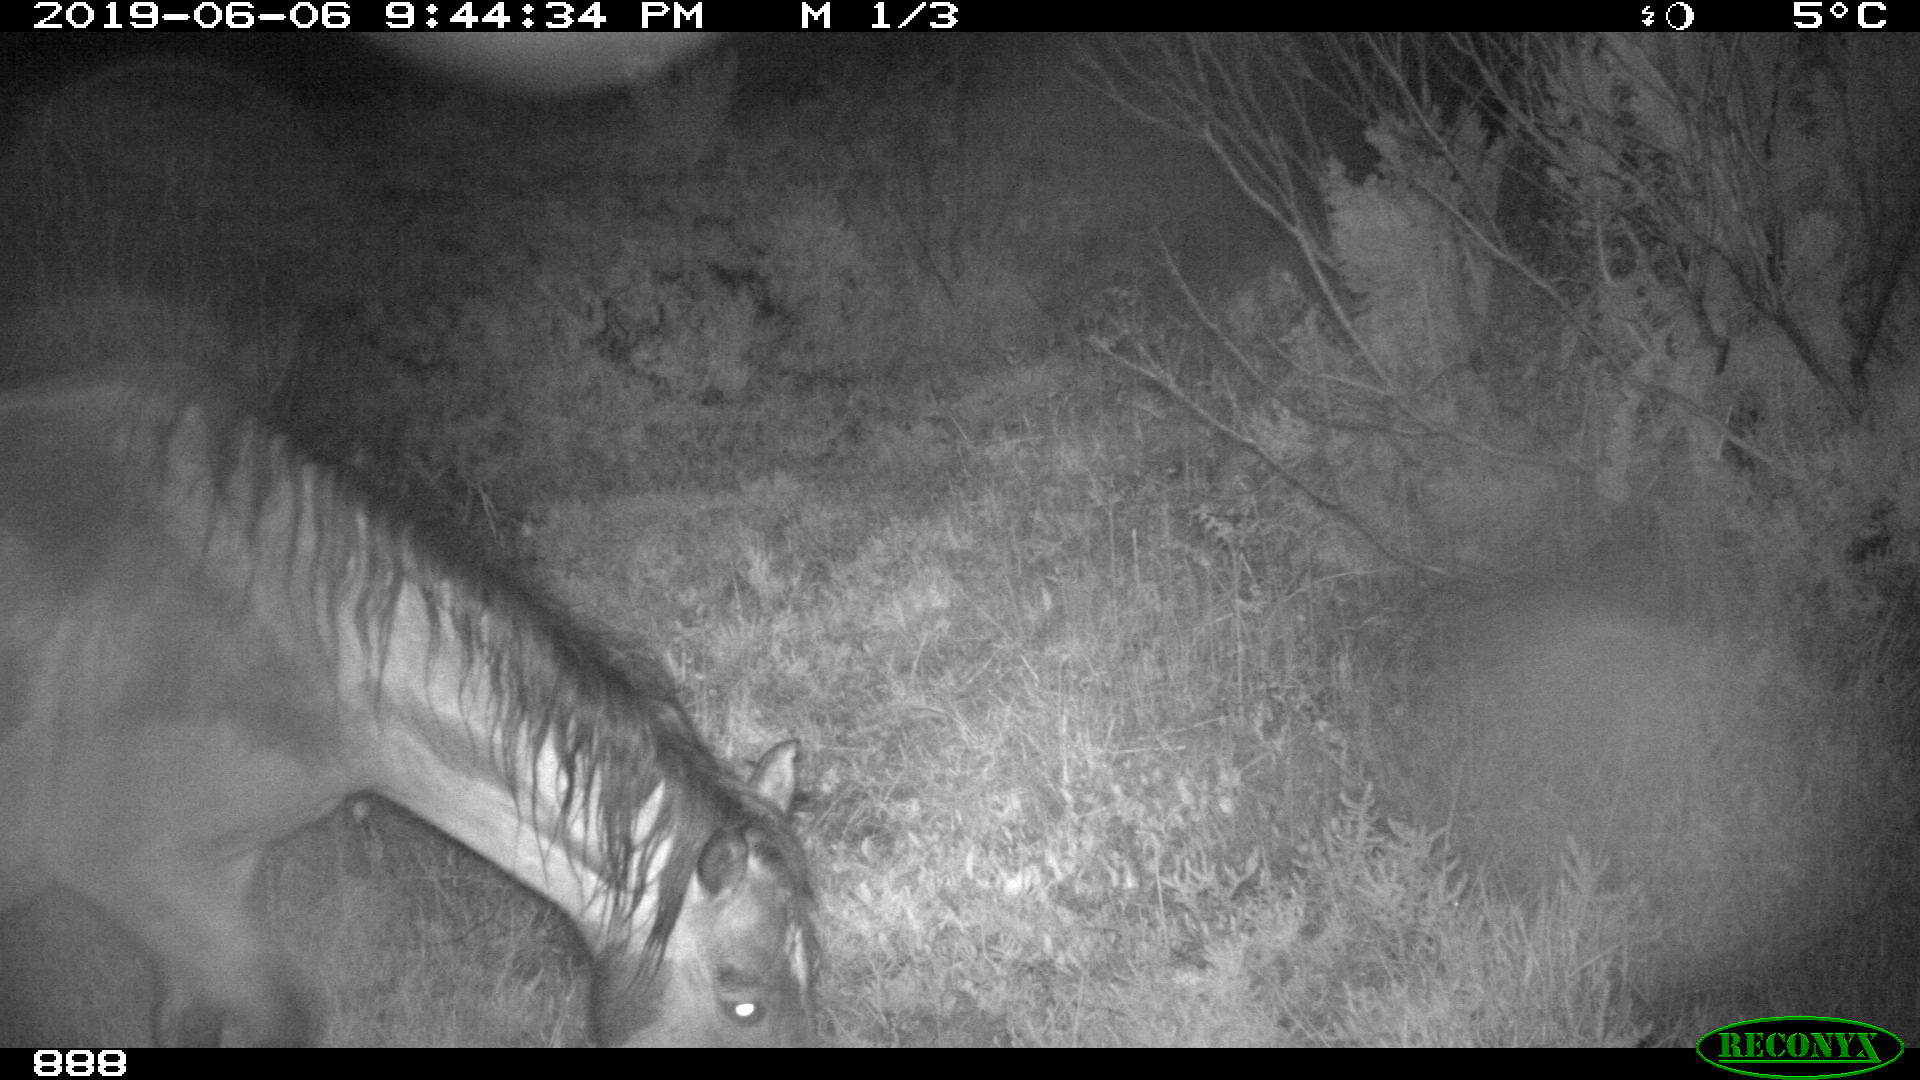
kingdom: Animalia
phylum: Chordata
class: Mammalia
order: Perissodactyla
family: Equidae
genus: Equus
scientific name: Equus caballus
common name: Horse
